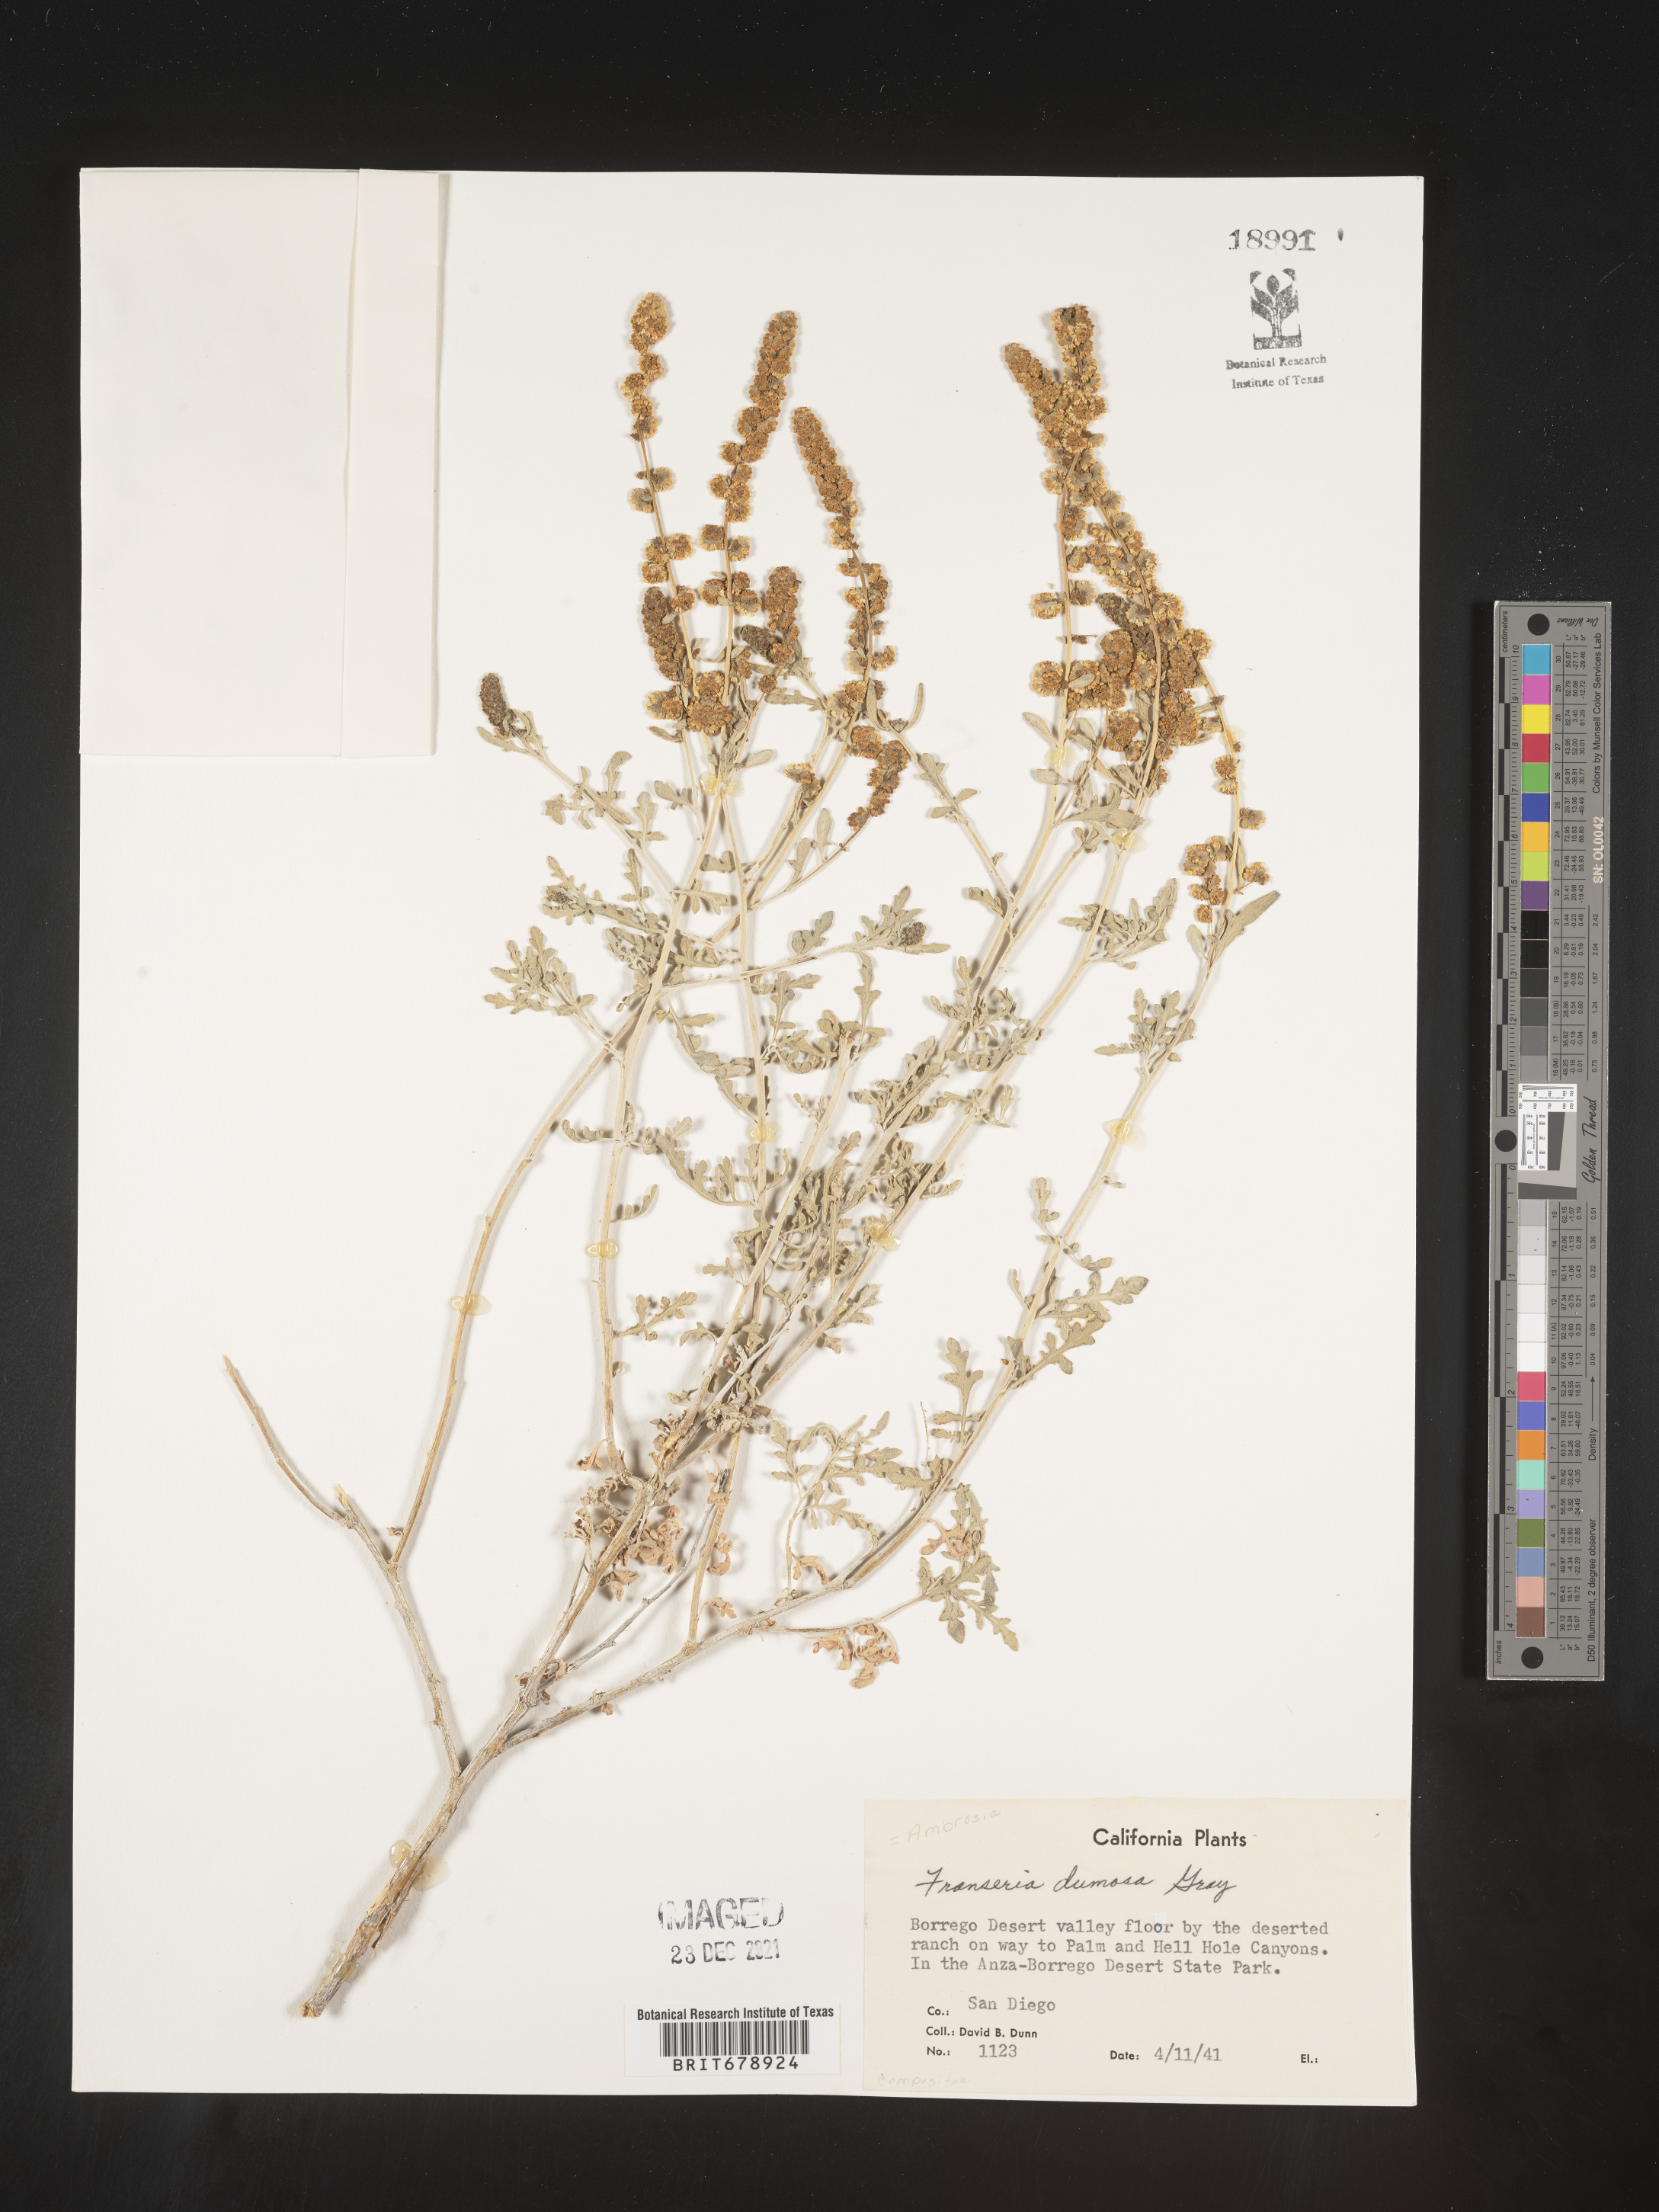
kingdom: Plantae
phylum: Tracheophyta
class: Magnoliopsida
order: Asterales
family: Asteraceae
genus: Ambrosia
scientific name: Ambrosia dumosa
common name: Bur-sage
